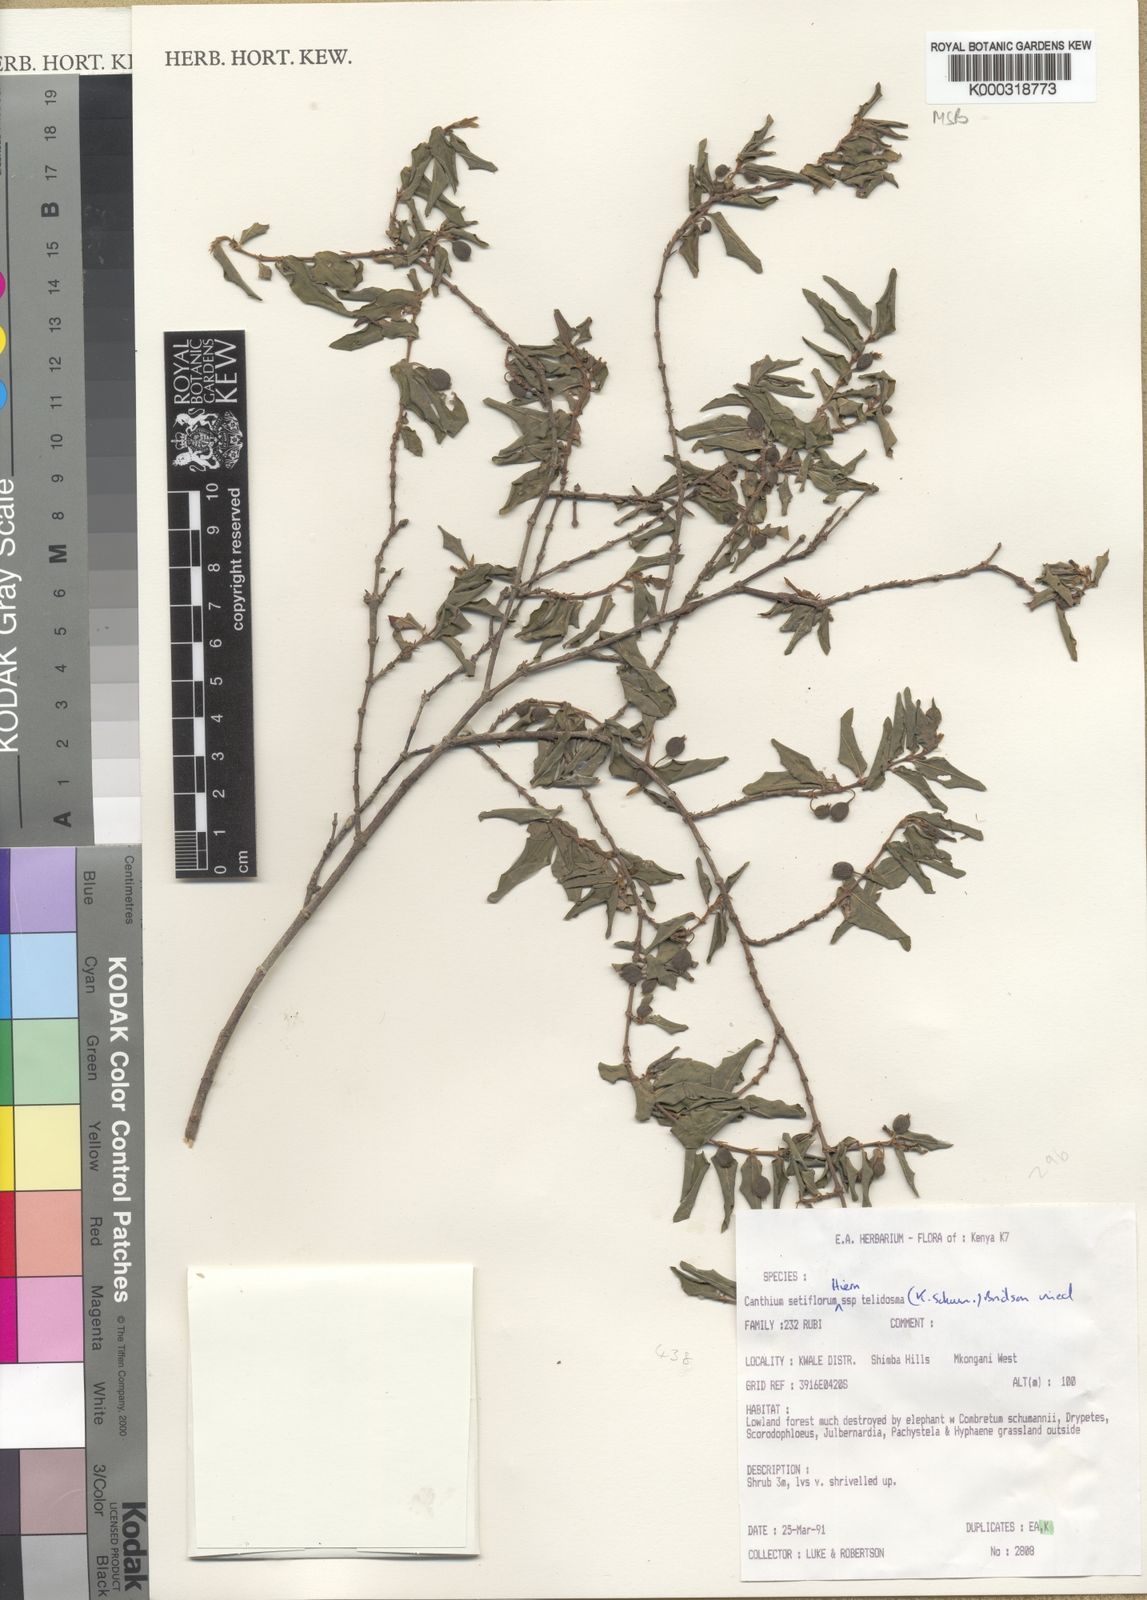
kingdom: Plantae
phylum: Tracheophyta
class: Magnoliopsida
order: Gentianales
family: Rubiaceae
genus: Bullockia
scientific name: Bullockia setiflora
